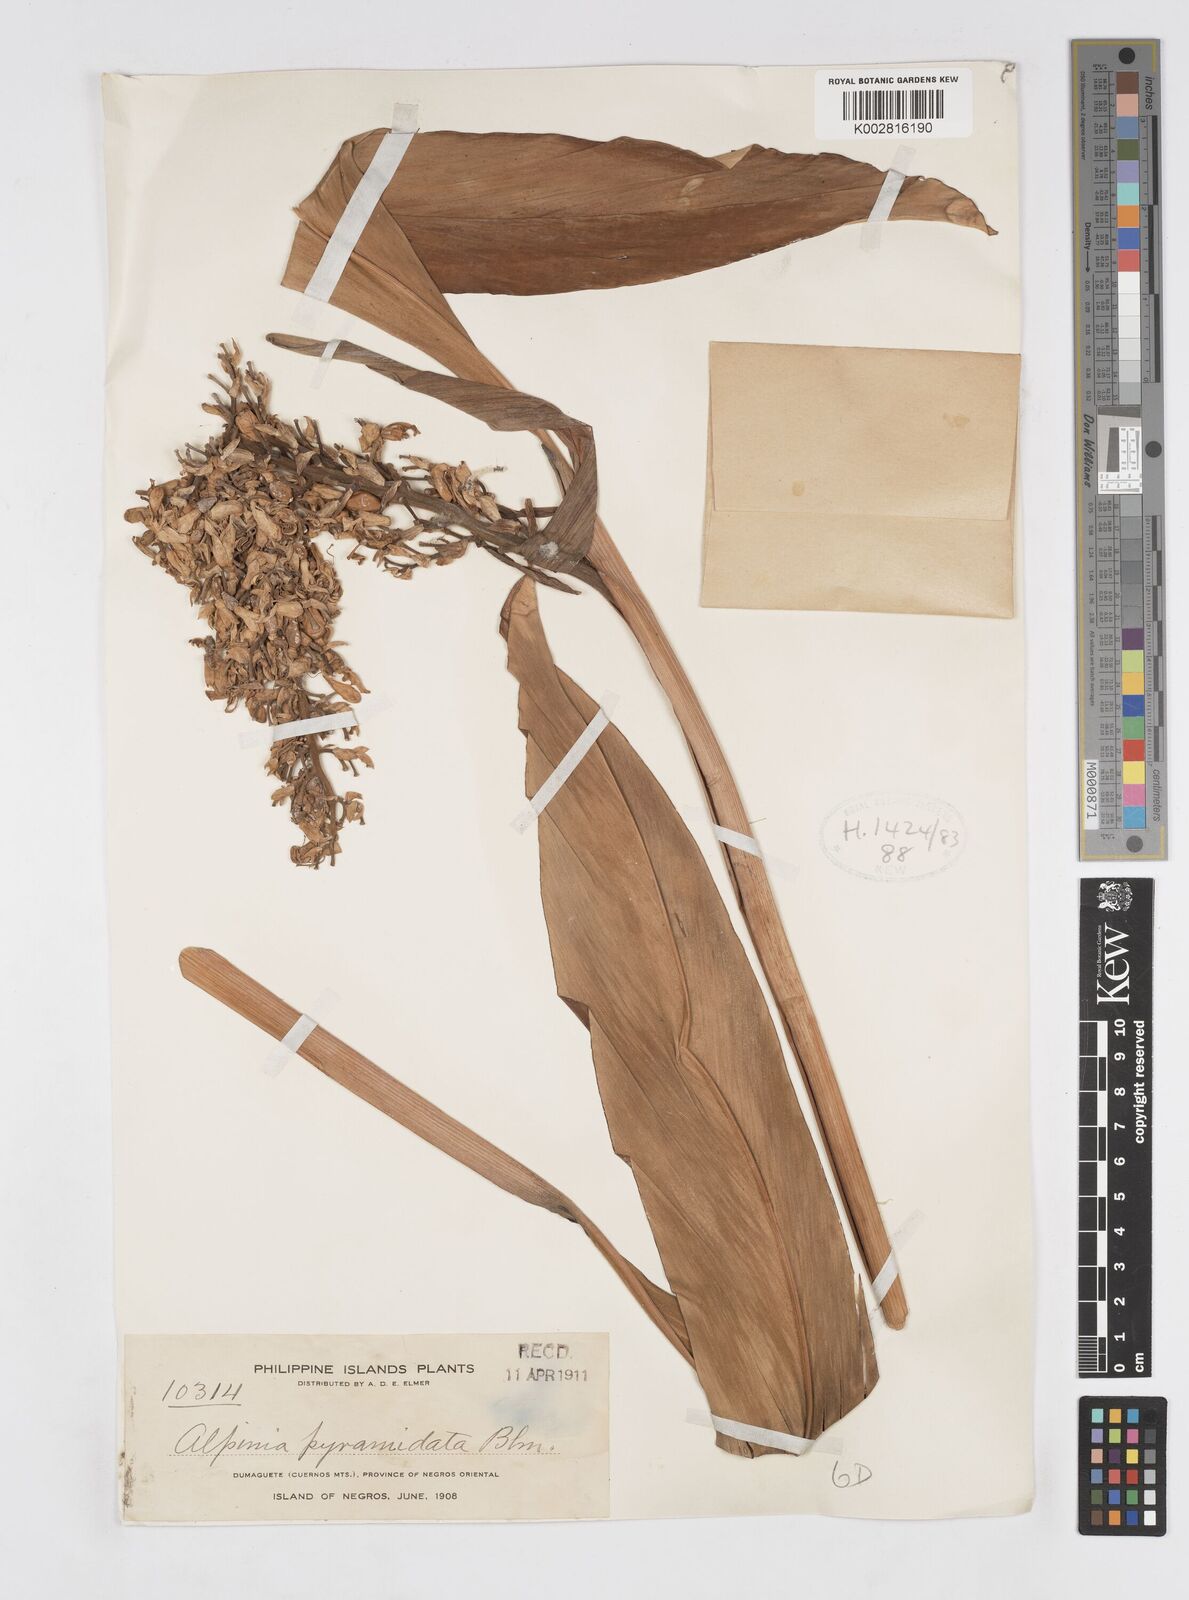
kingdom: Plantae
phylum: Tracheophyta
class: Liliopsida
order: Zingiberales
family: Zingiberaceae
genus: Alpinia
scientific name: Alpinia galanga
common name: Siamese-ginger
